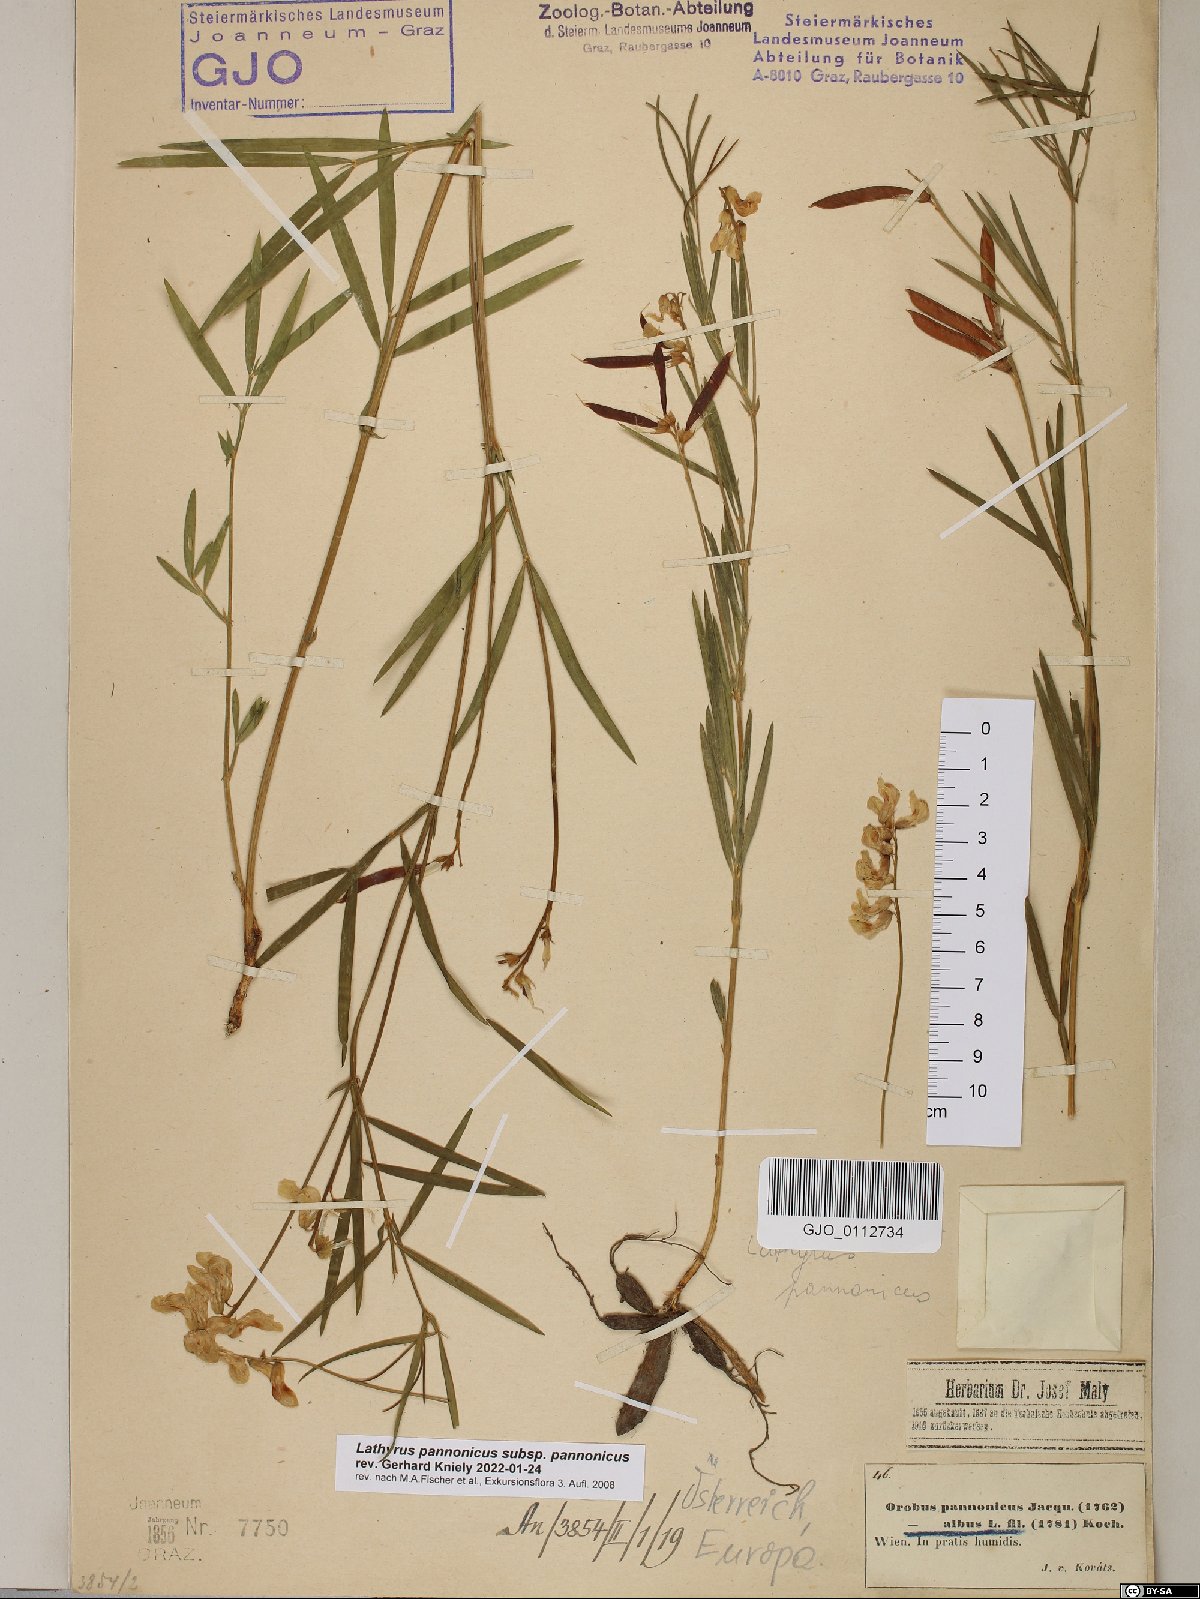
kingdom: Plantae
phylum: Tracheophyta
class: Magnoliopsida
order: Fabales
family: Fabaceae
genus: Lathyrus
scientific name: Lathyrus pannonicus
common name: Pea
